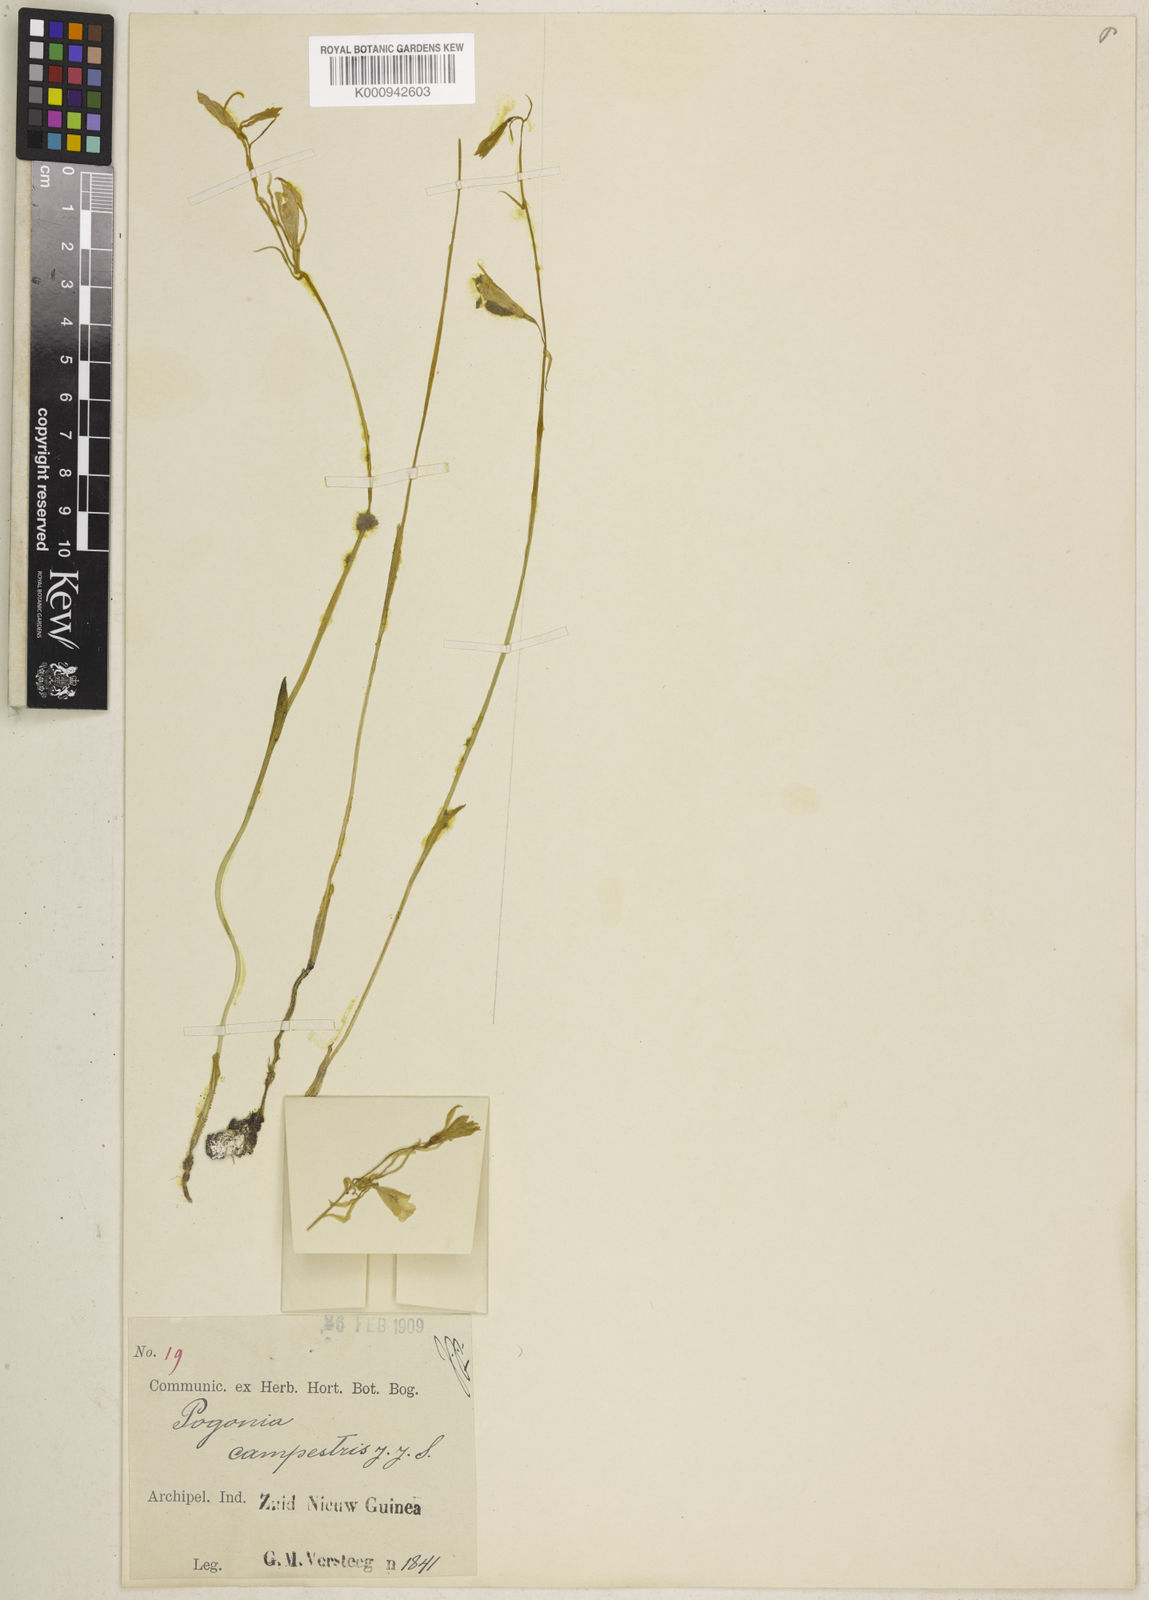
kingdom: Plantae
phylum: Tracheophyta
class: Liliopsida
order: Asparagales
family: Orchidaceae
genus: Nervilia
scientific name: Nervilia holochila
